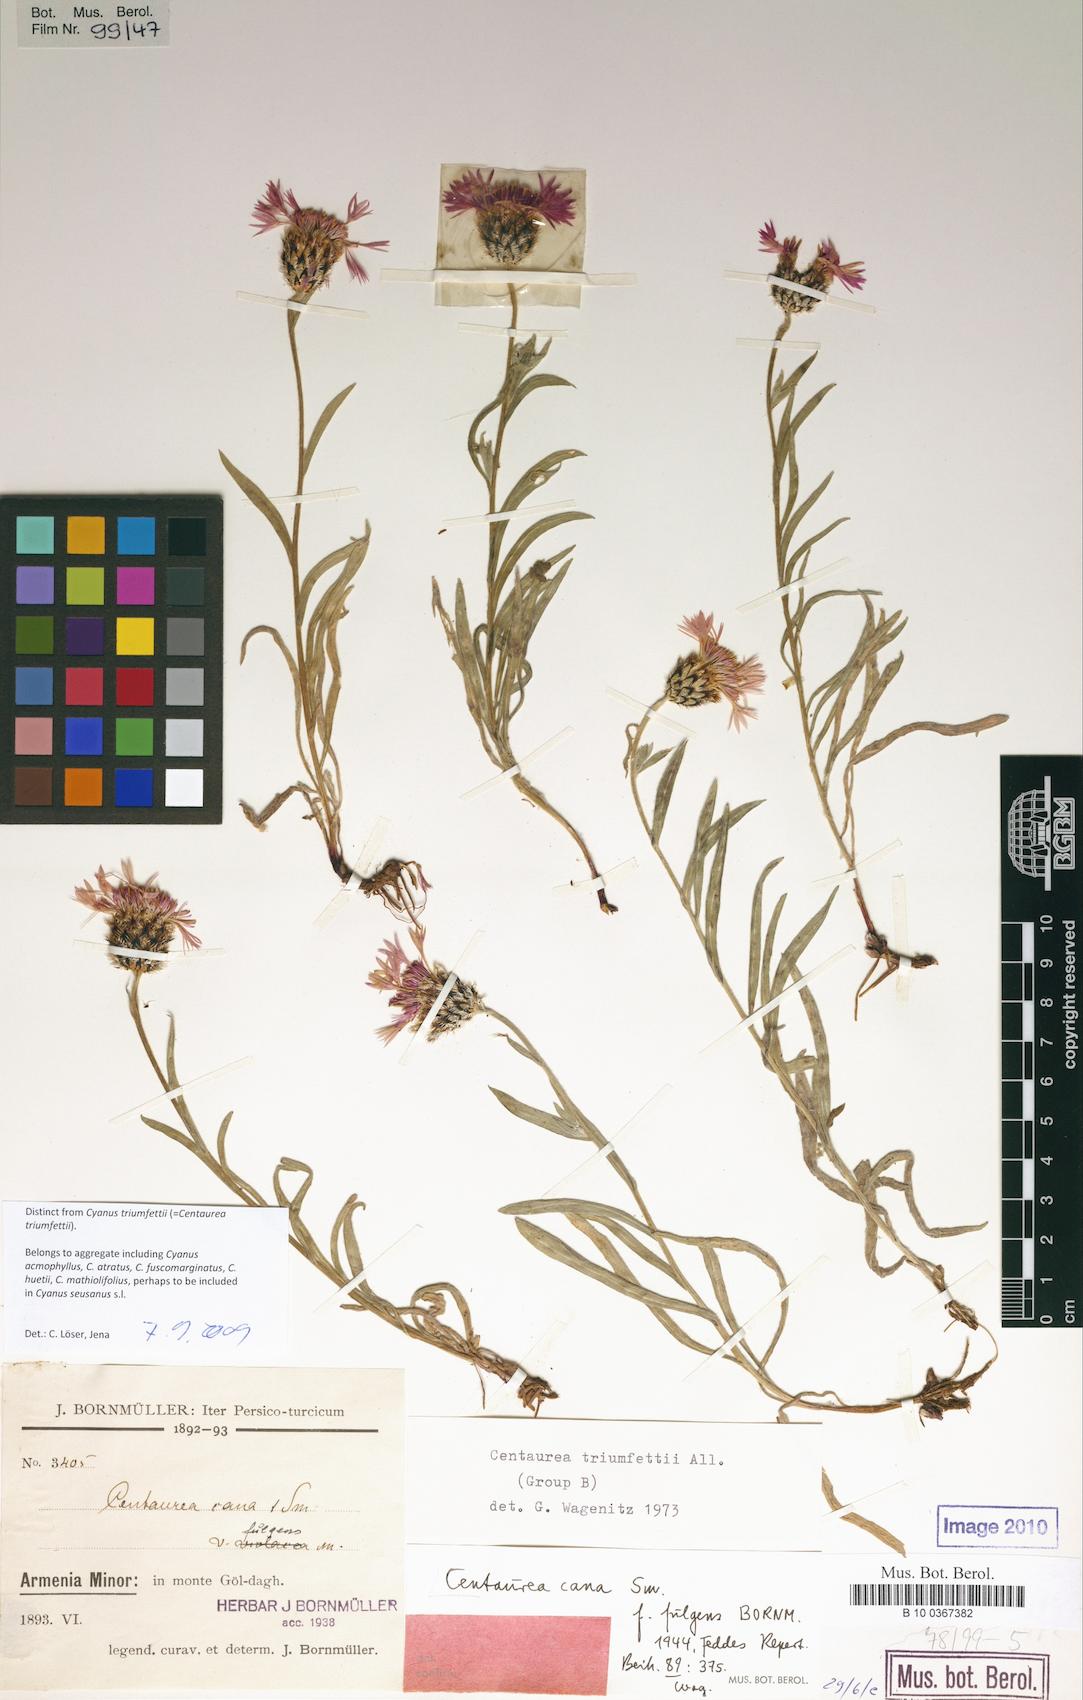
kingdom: Plantae
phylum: Tracheophyta
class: Magnoliopsida
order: Asterales
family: Asteraceae
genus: Centaurea
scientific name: Centaurea atrata
